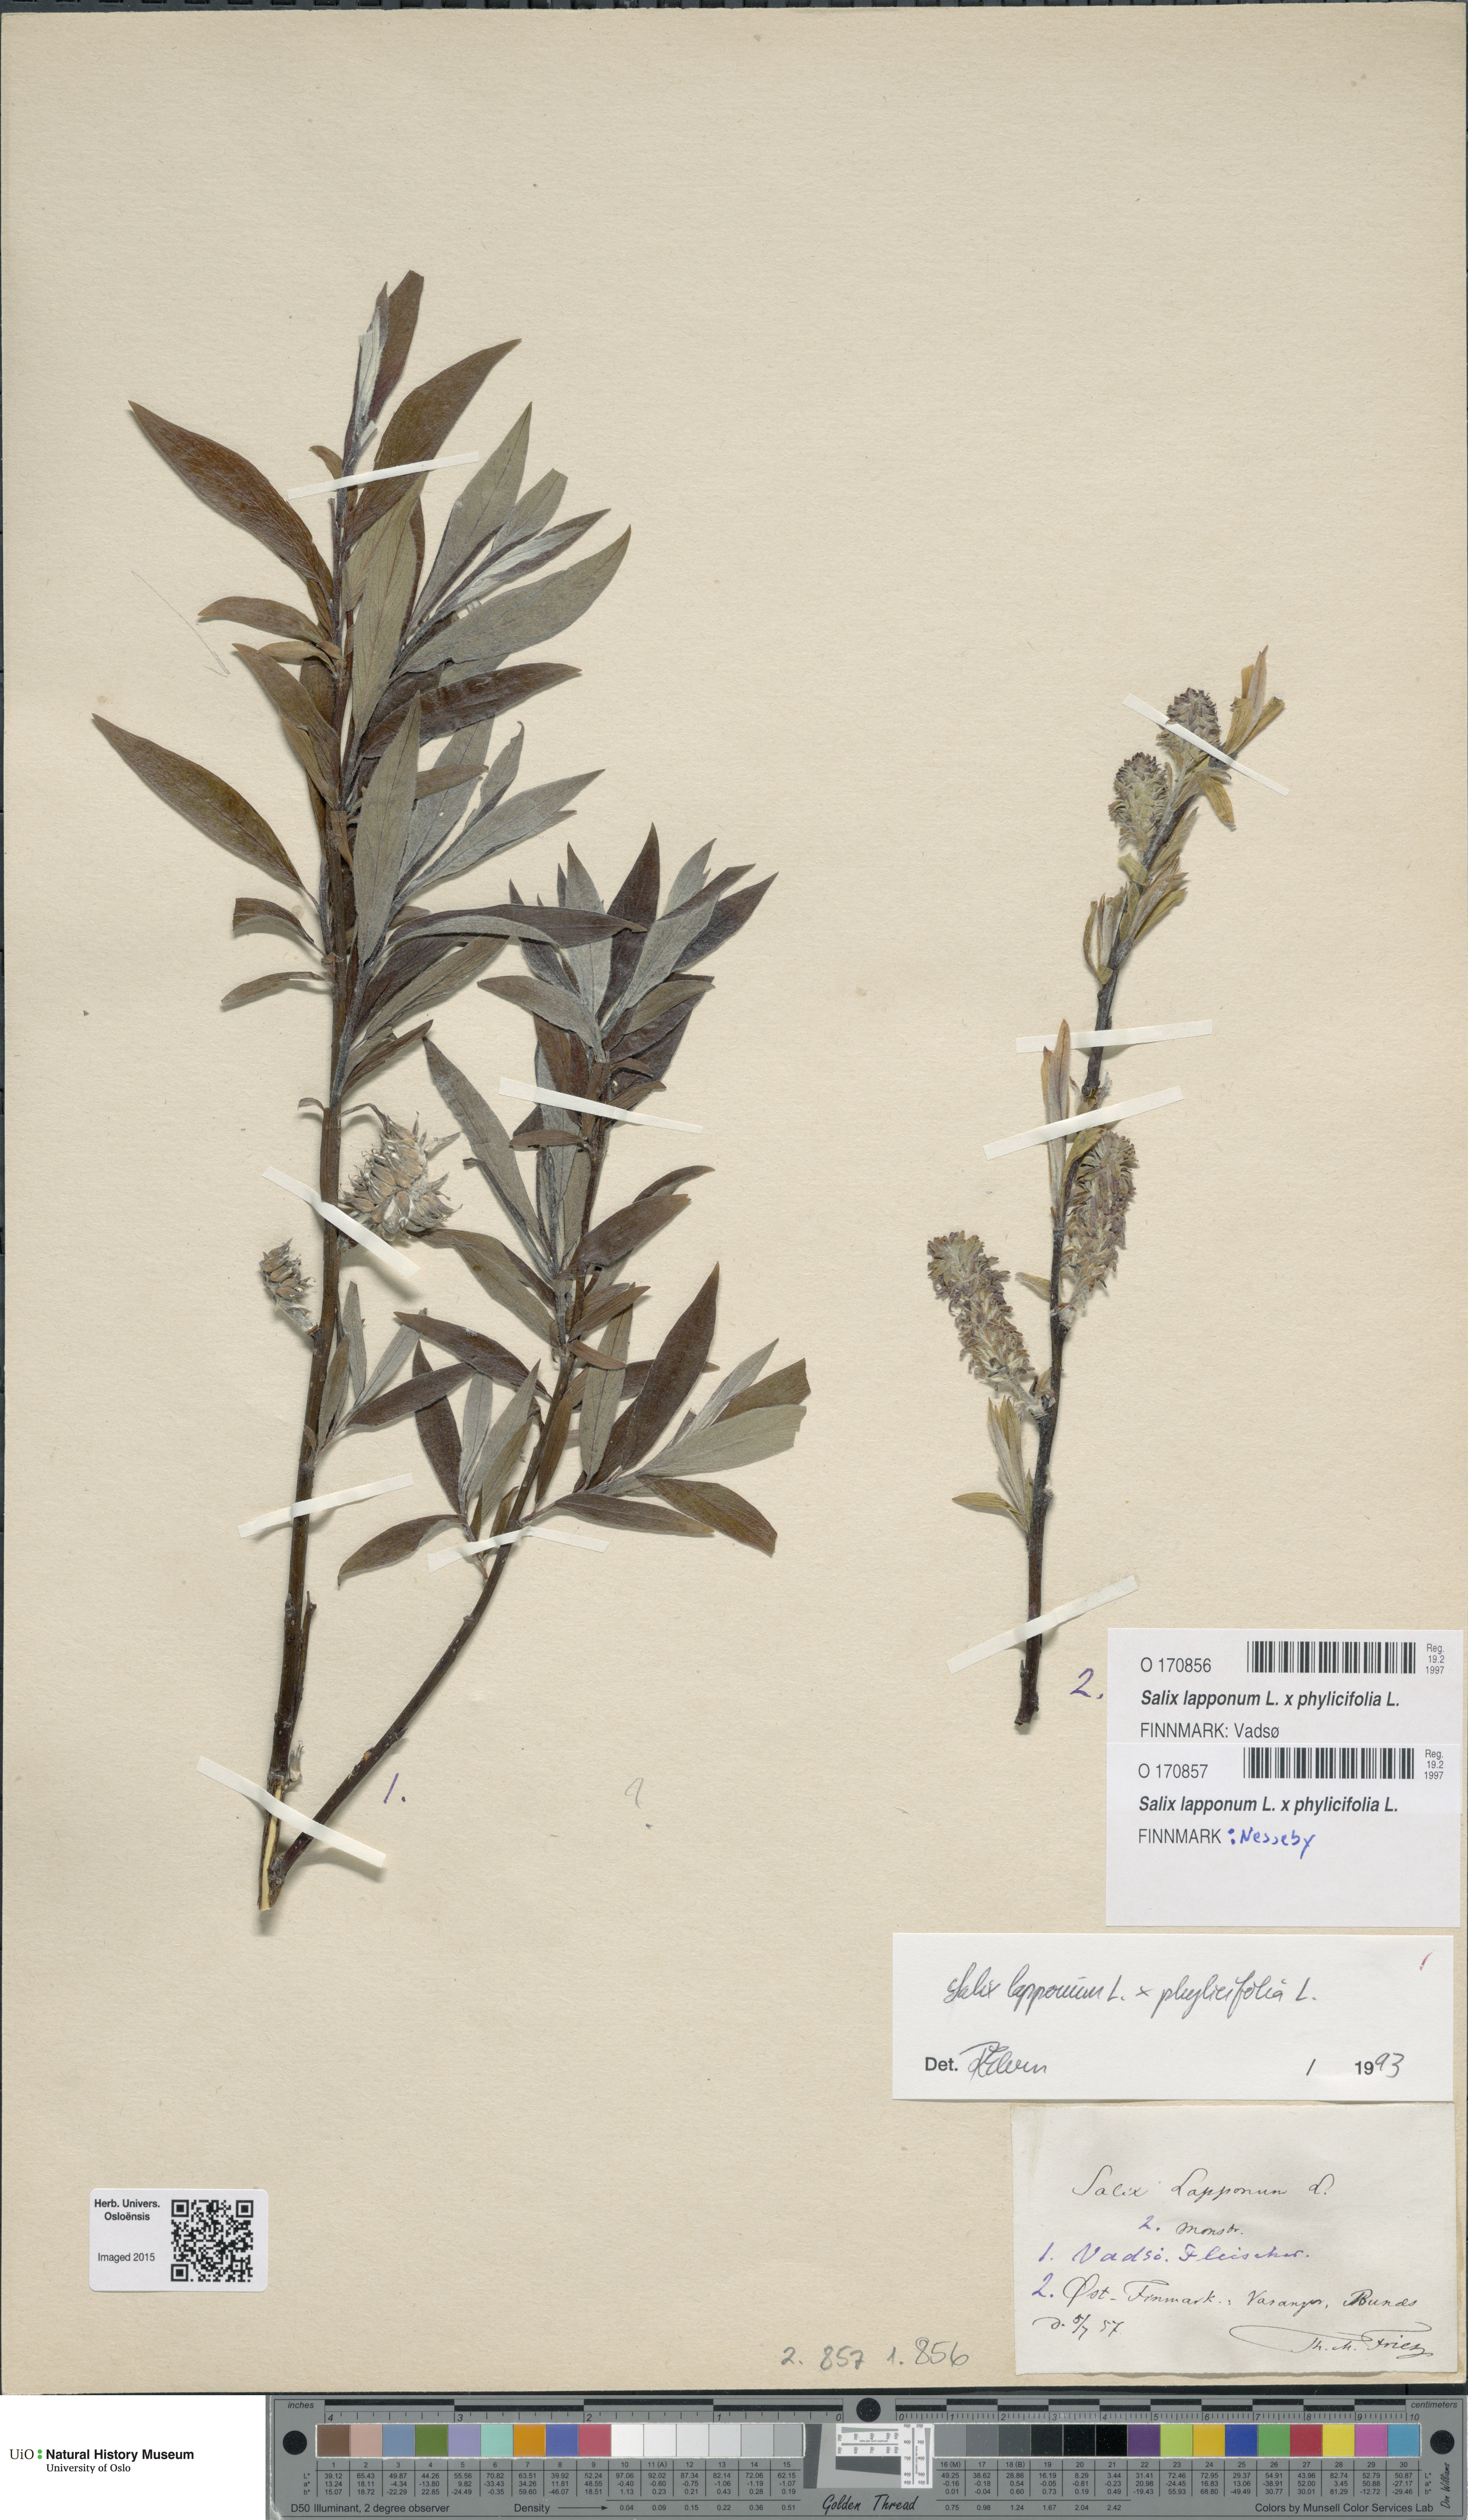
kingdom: Plantae
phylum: Tracheophyta
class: Magnoliopsida
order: Malpighiales
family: Salicaceae
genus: Salix
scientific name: Salix
